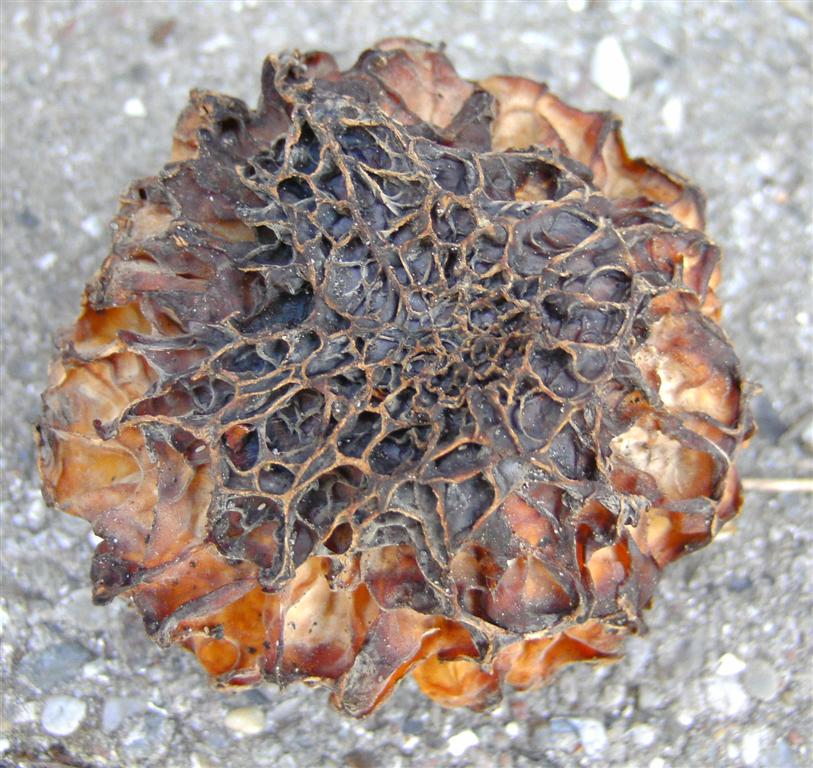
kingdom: Fungi
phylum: Ascomycota
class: Pezizomycetes
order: Pezizales
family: Morchellaceae
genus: Morchella
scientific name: Morchella esculenta
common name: spiselig morkel
